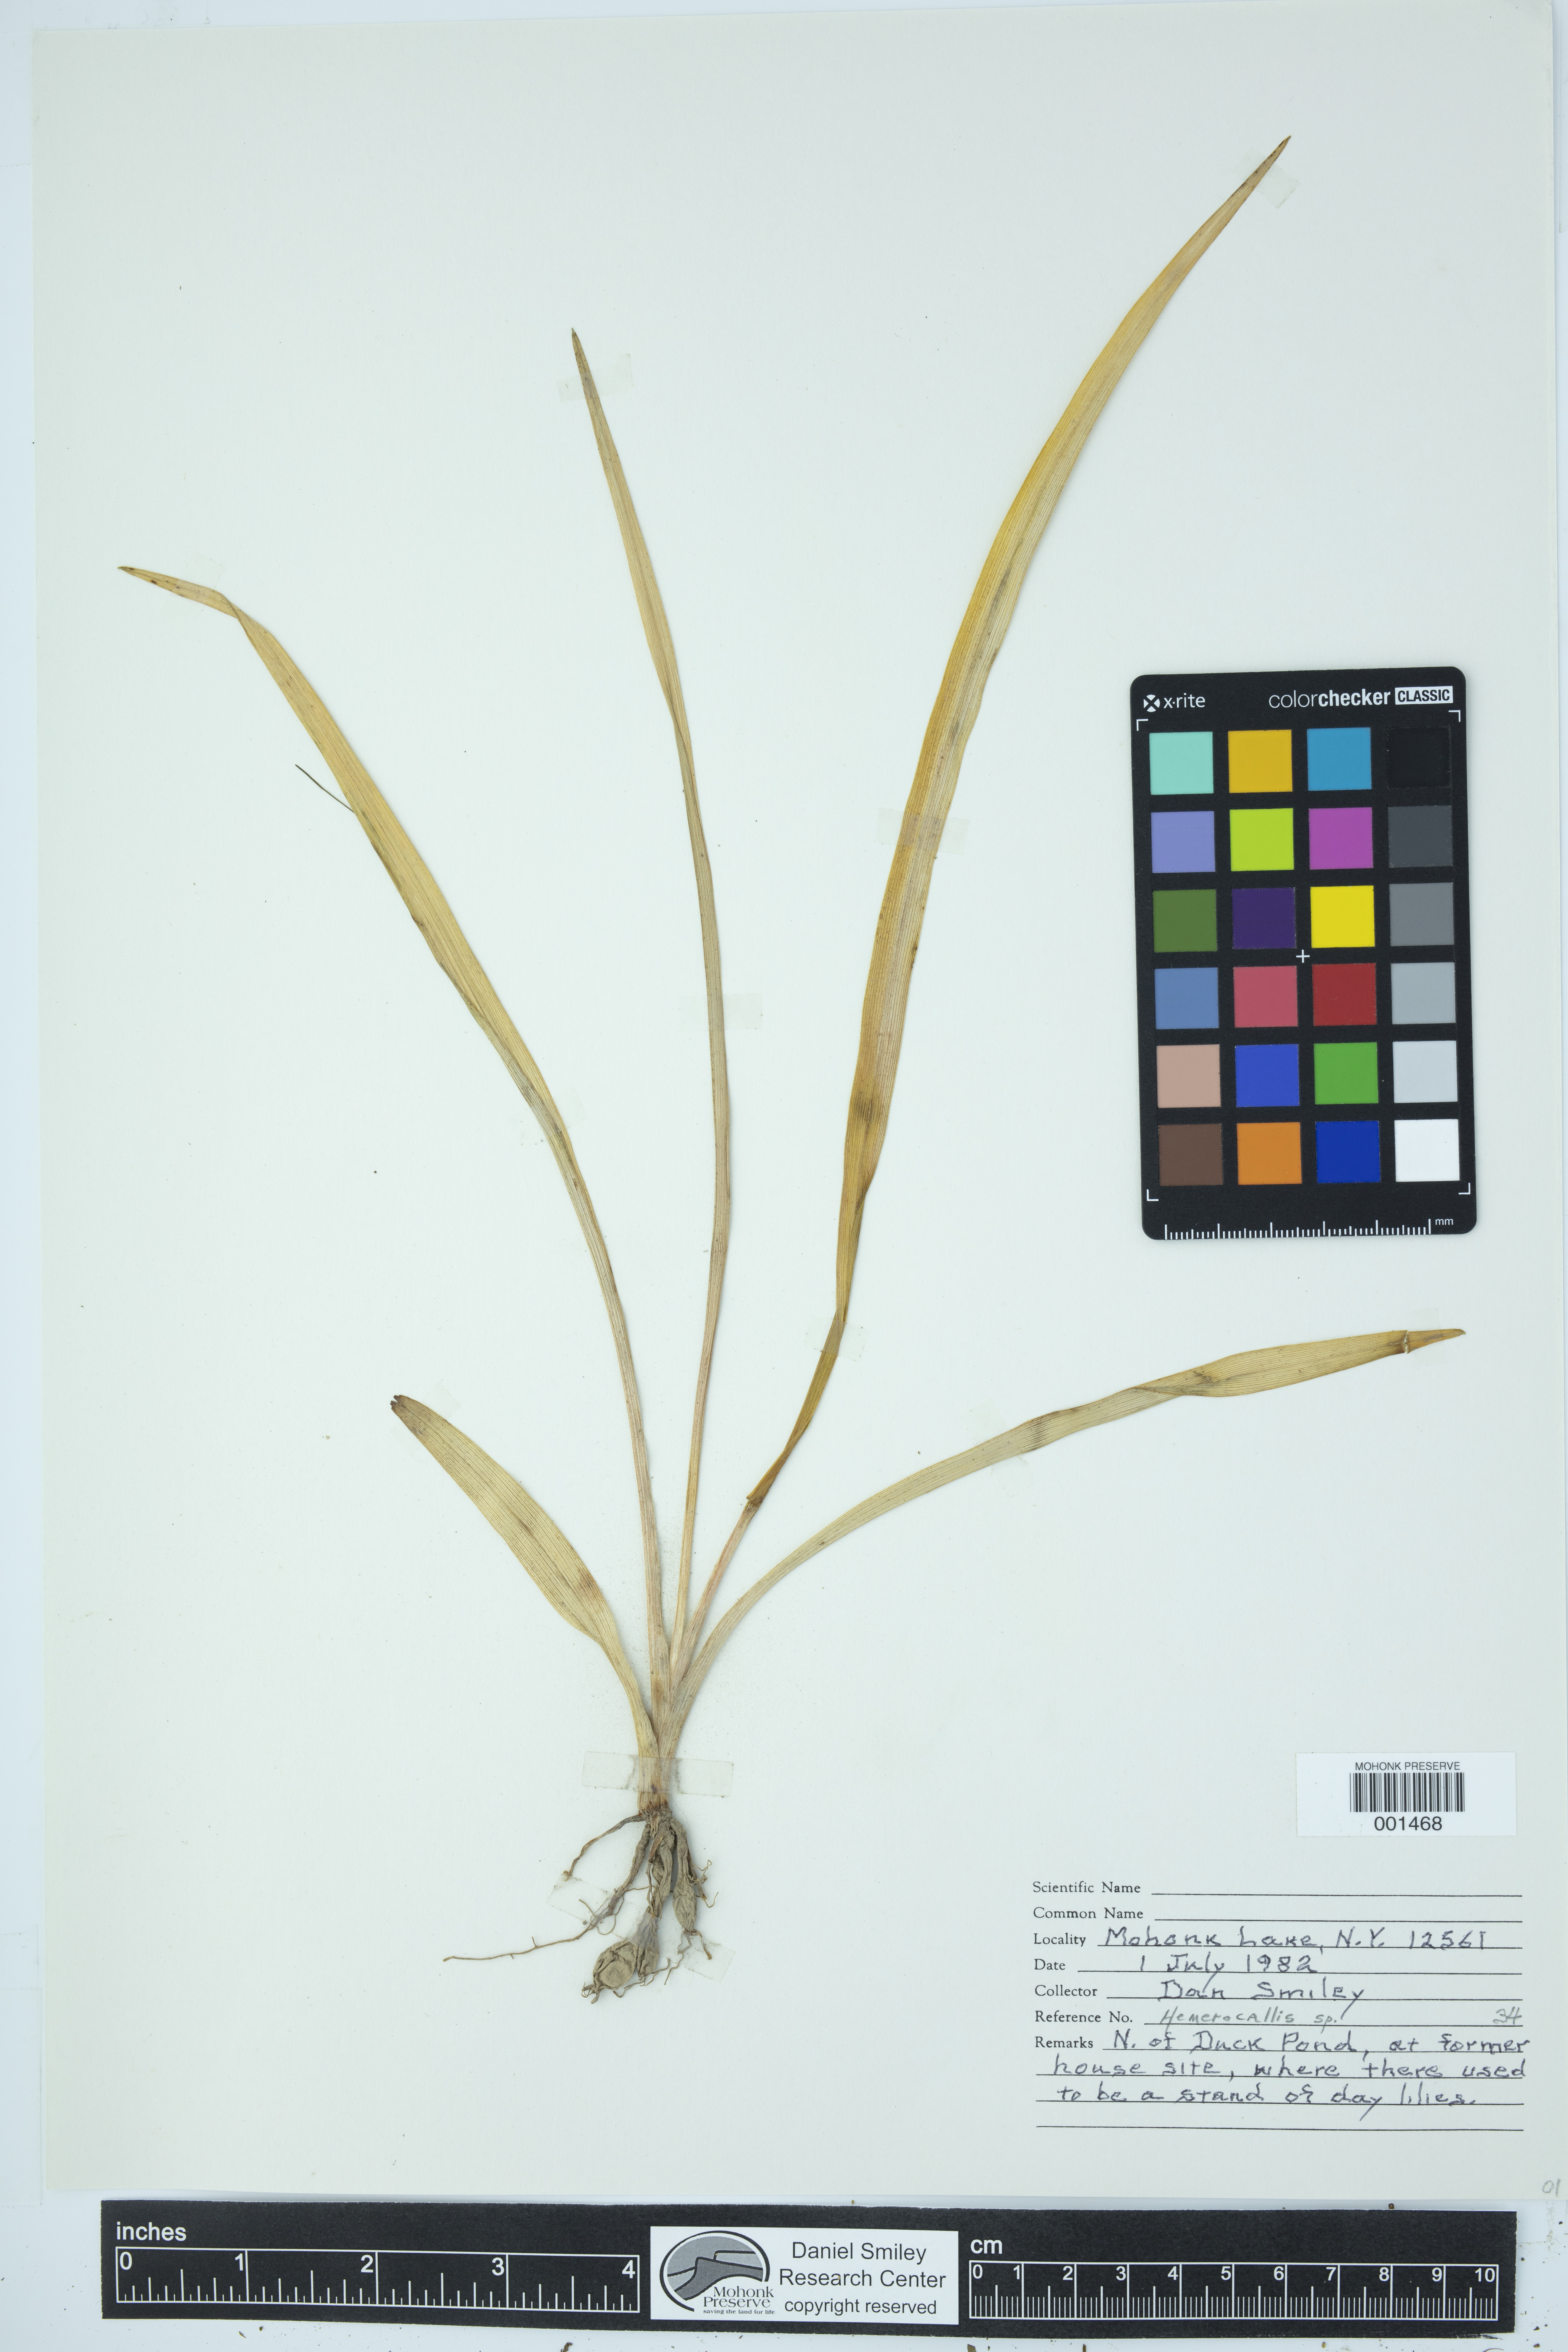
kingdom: Plantae
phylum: Tracheophyta
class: Liliopsida
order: Asparagales
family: Asphodelaceae
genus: Hemerocallis
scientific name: Hemerocallis
